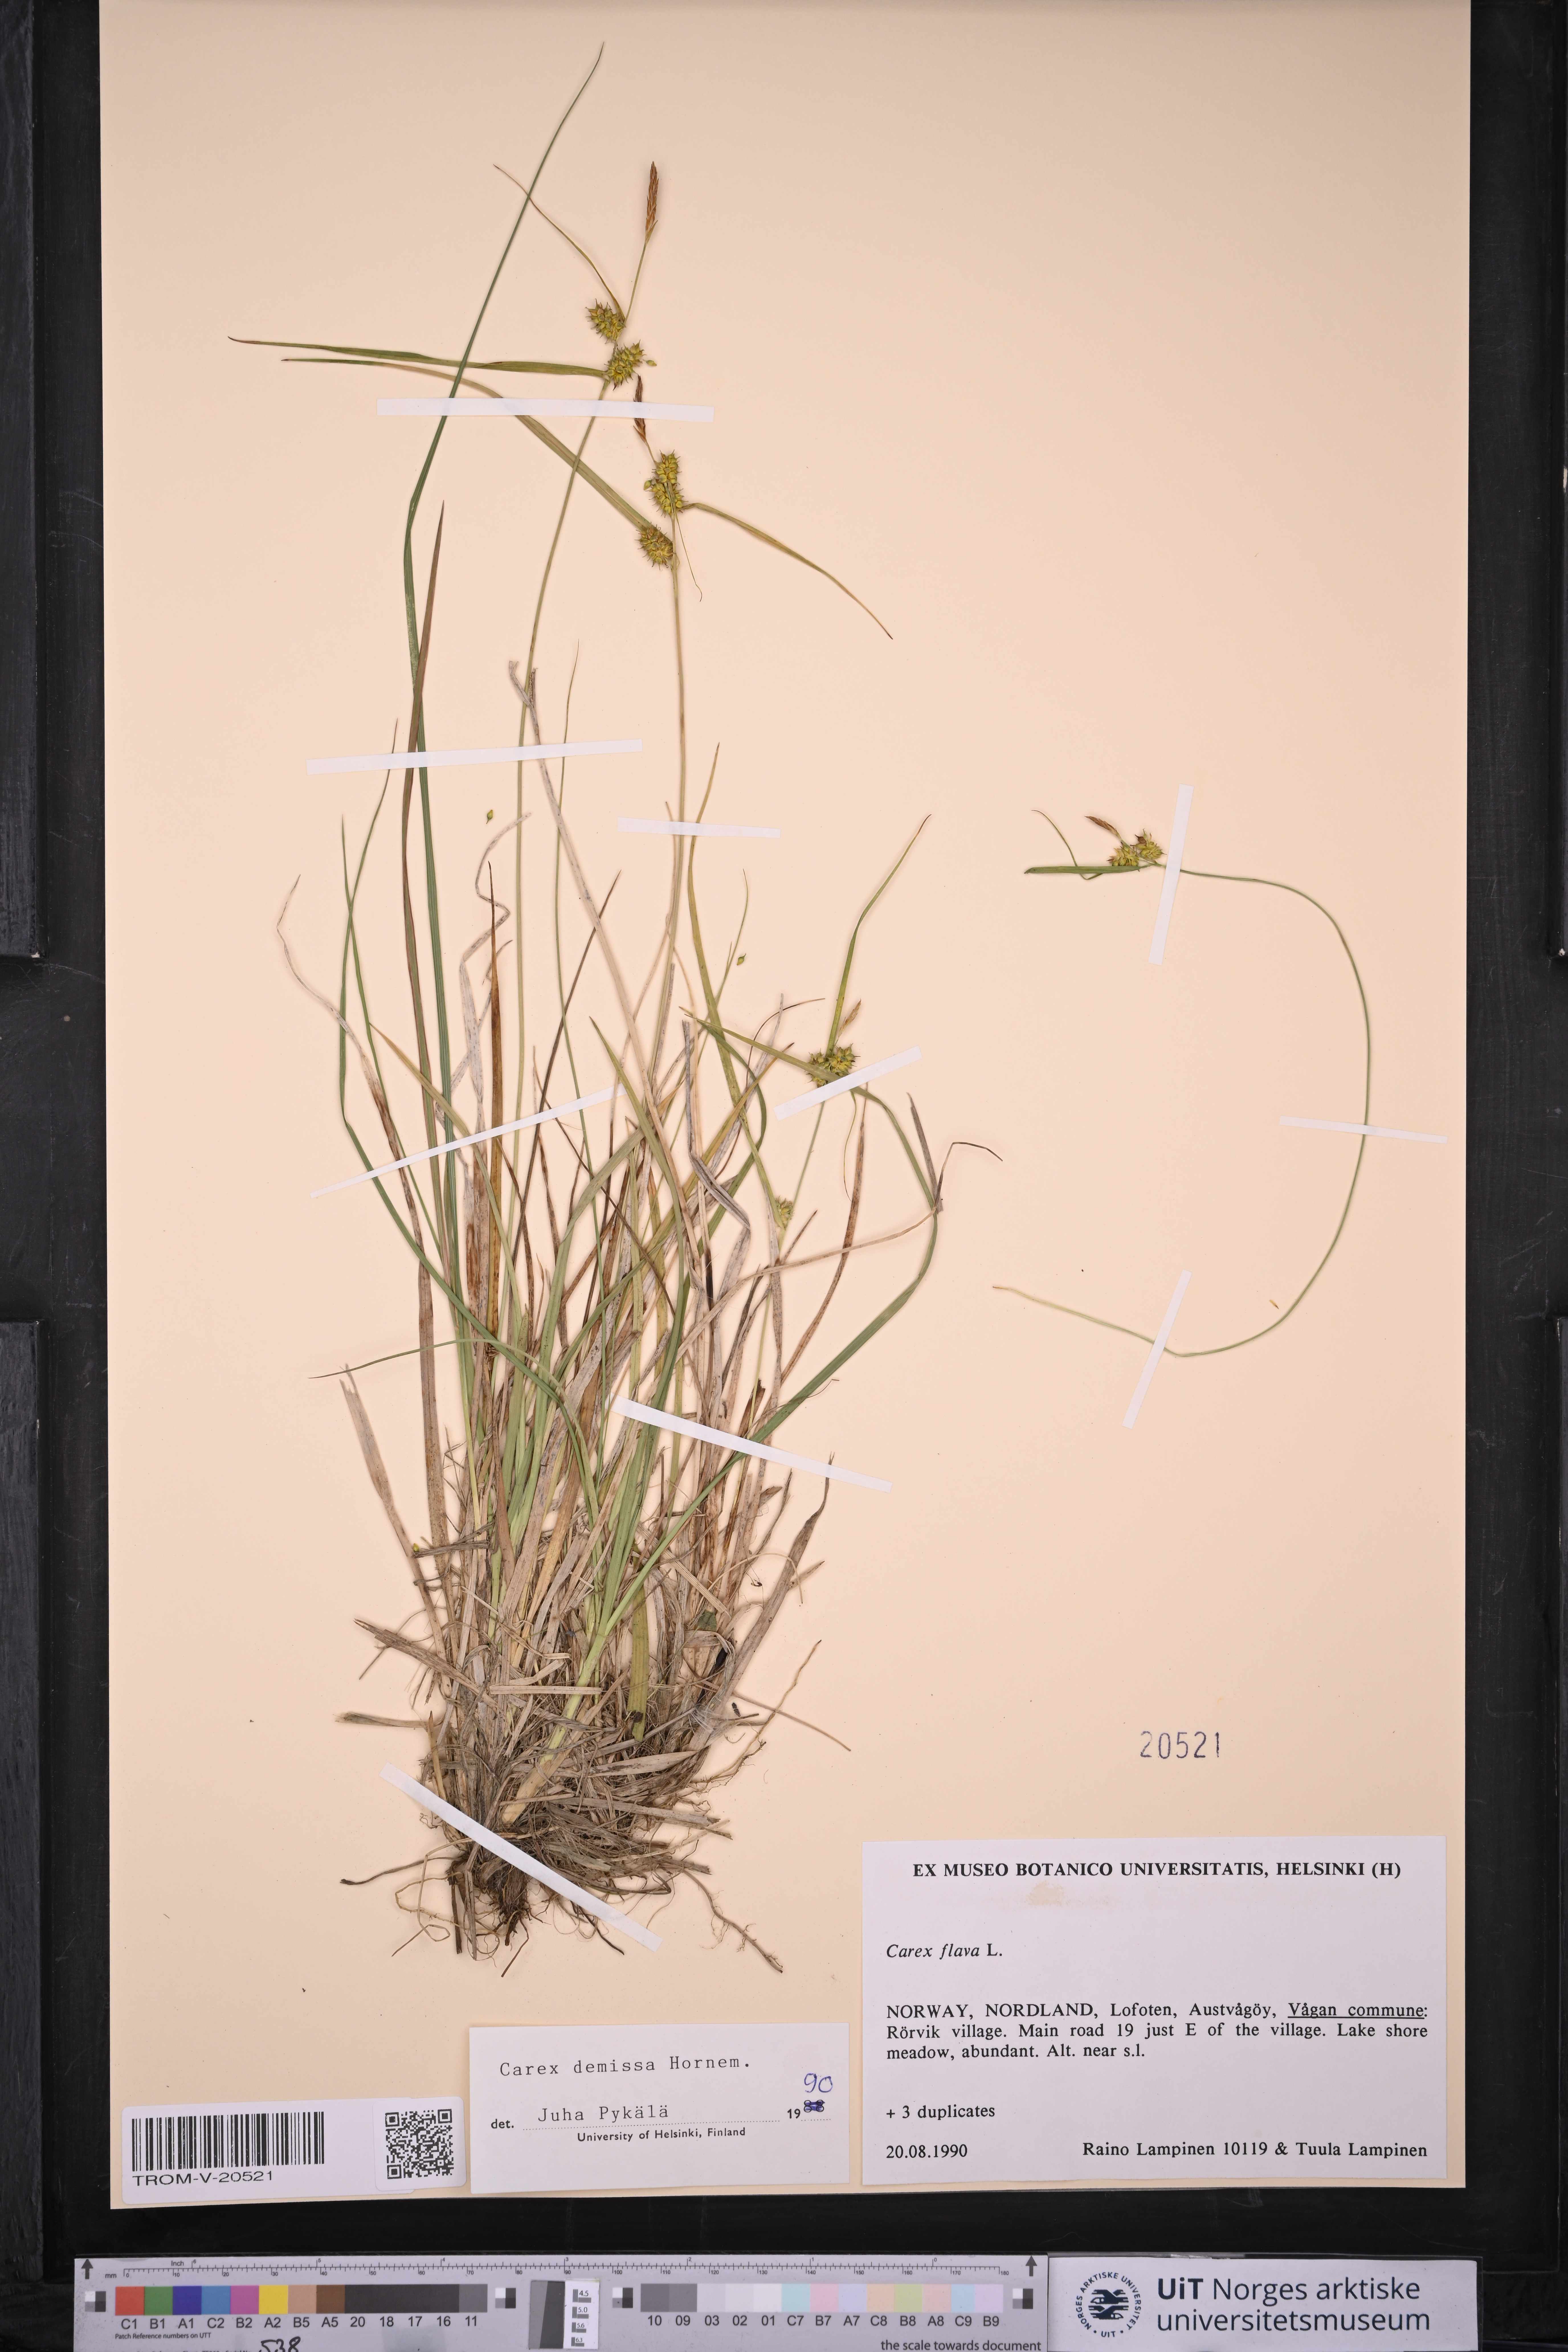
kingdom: Plantae
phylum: Tracheophyta
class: Liliopsida
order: Poales
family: Cyperaceae
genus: Carex
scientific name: Carex demissa
